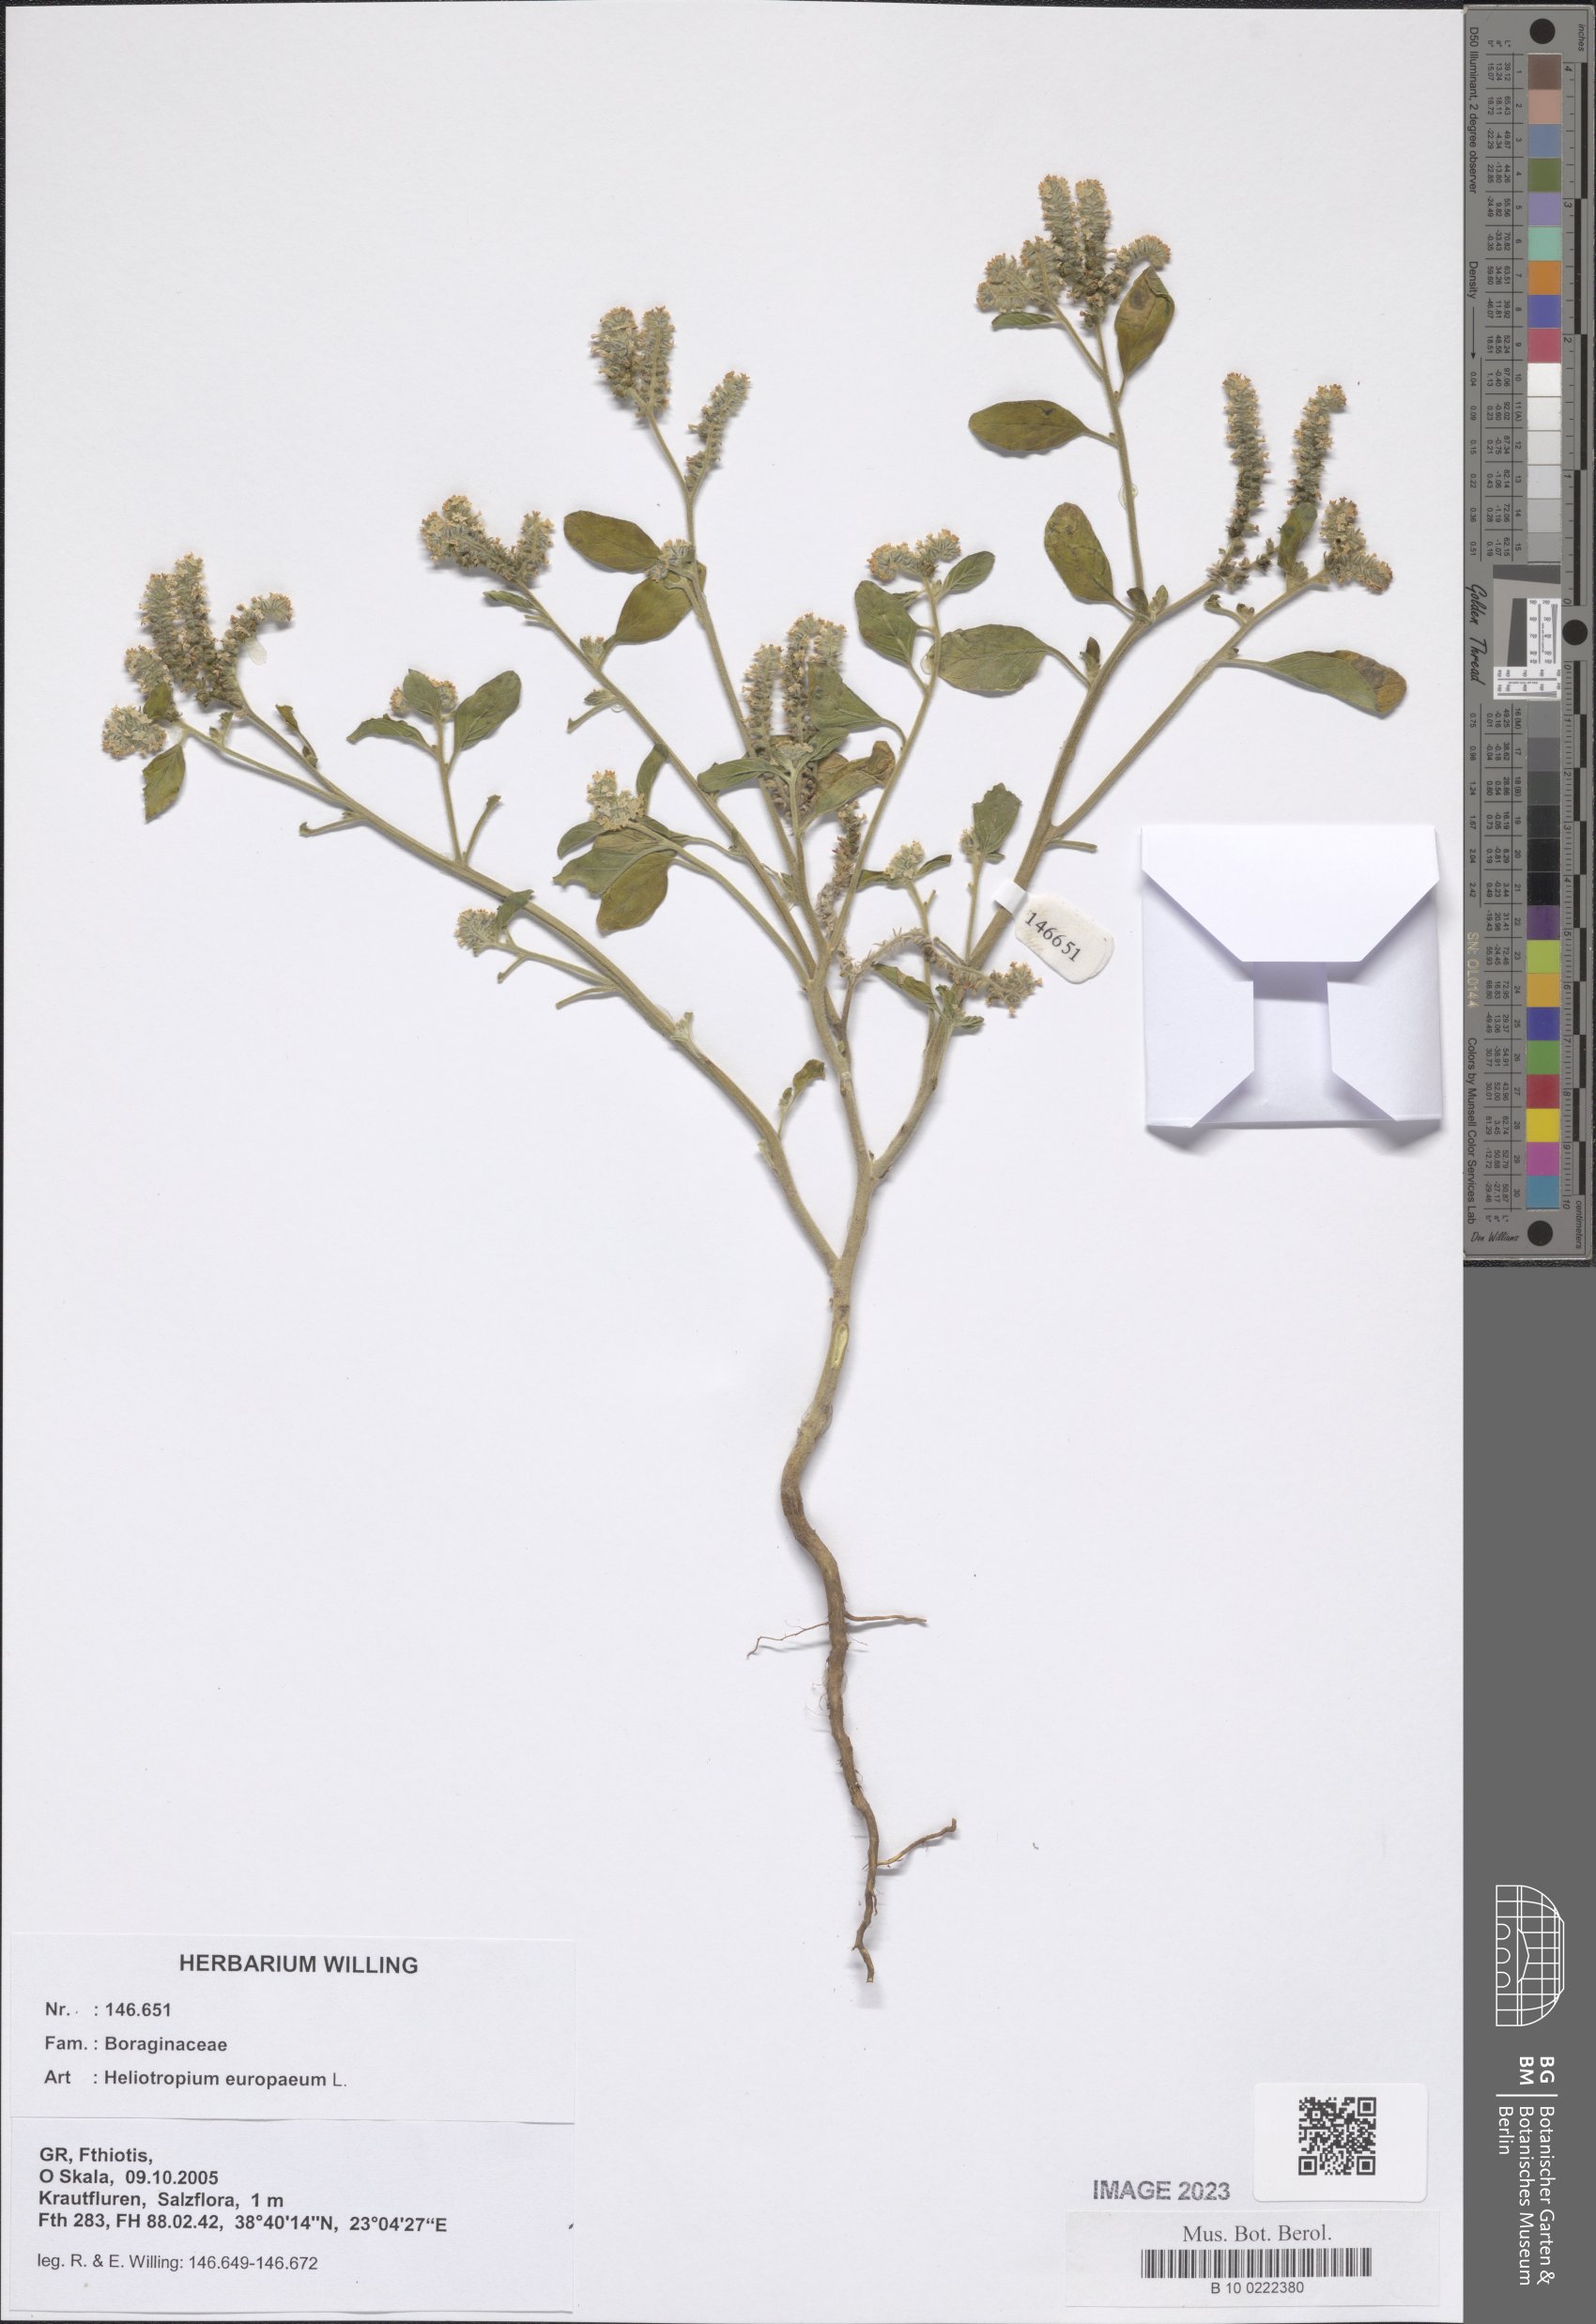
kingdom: Plantae
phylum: Tracheophyta
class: Magnoliopsida
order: Boraginales
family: Heliotropiaceae
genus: Heliotropium
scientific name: Heliotropium europaeum
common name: European heliotrope
